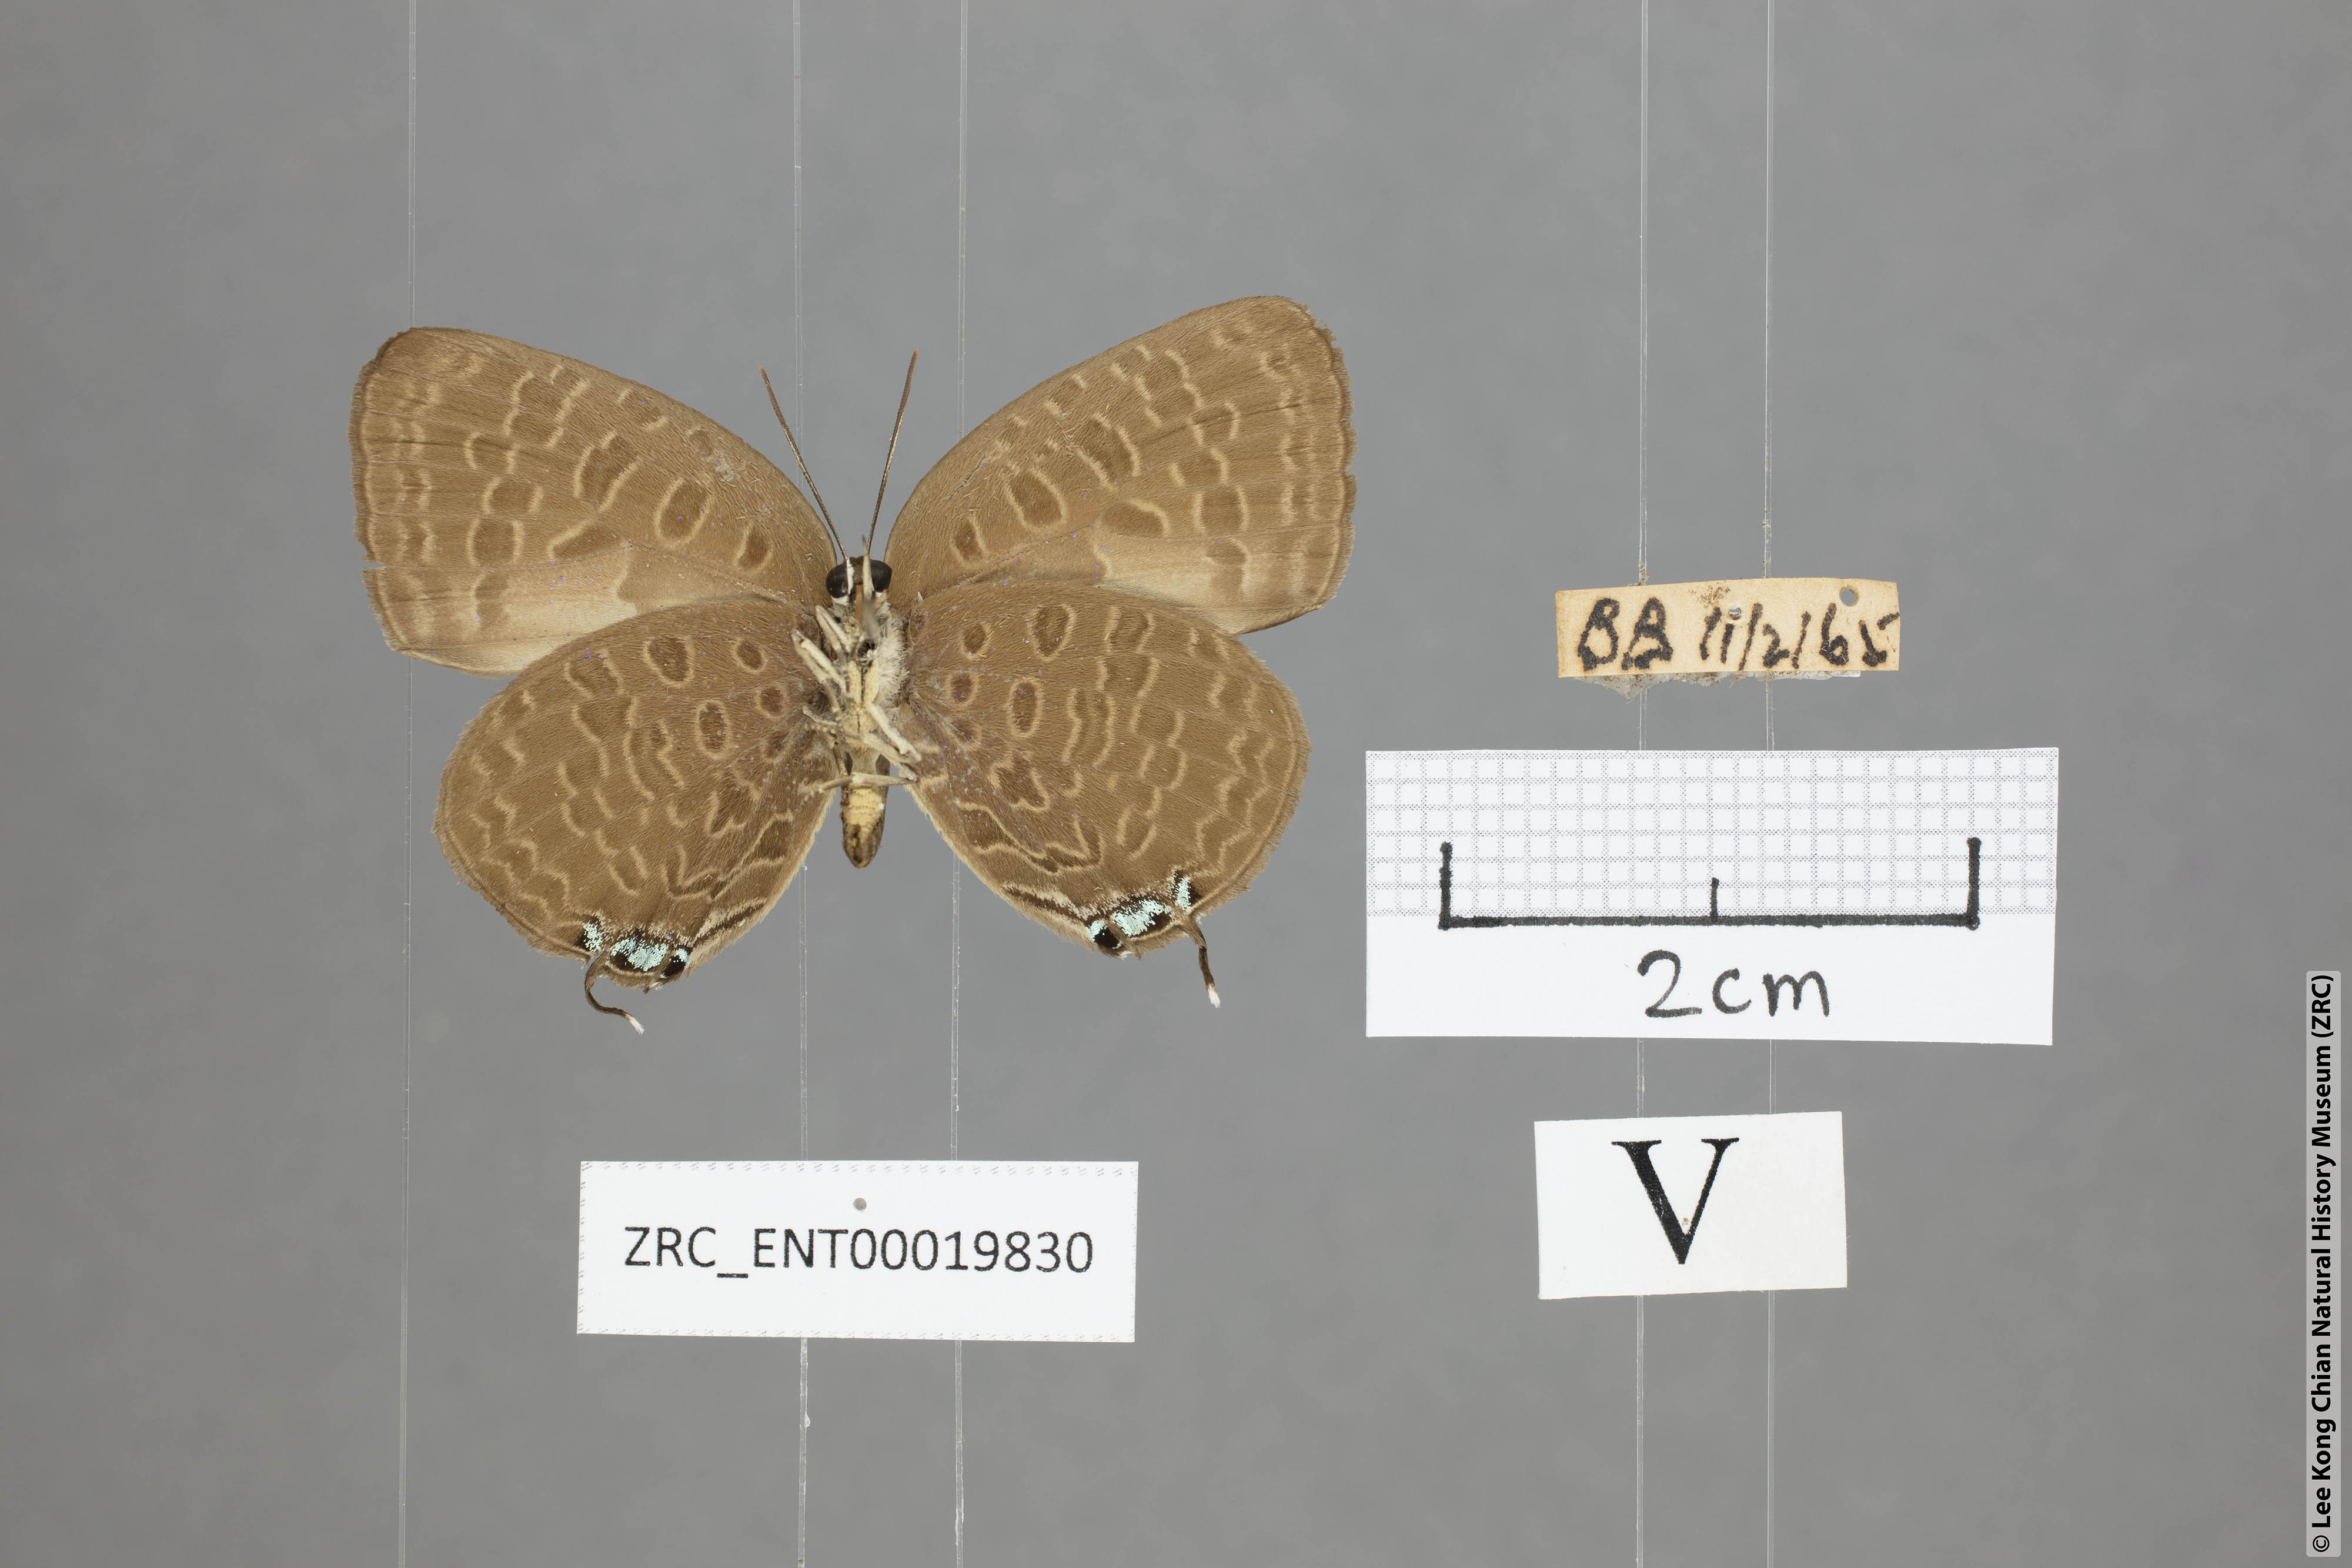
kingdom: Animalia
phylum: Arthropoda
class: Insecta
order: Lepidoptera
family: Lycaenidae
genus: Arhopala
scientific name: Arhopala pseudomuta
